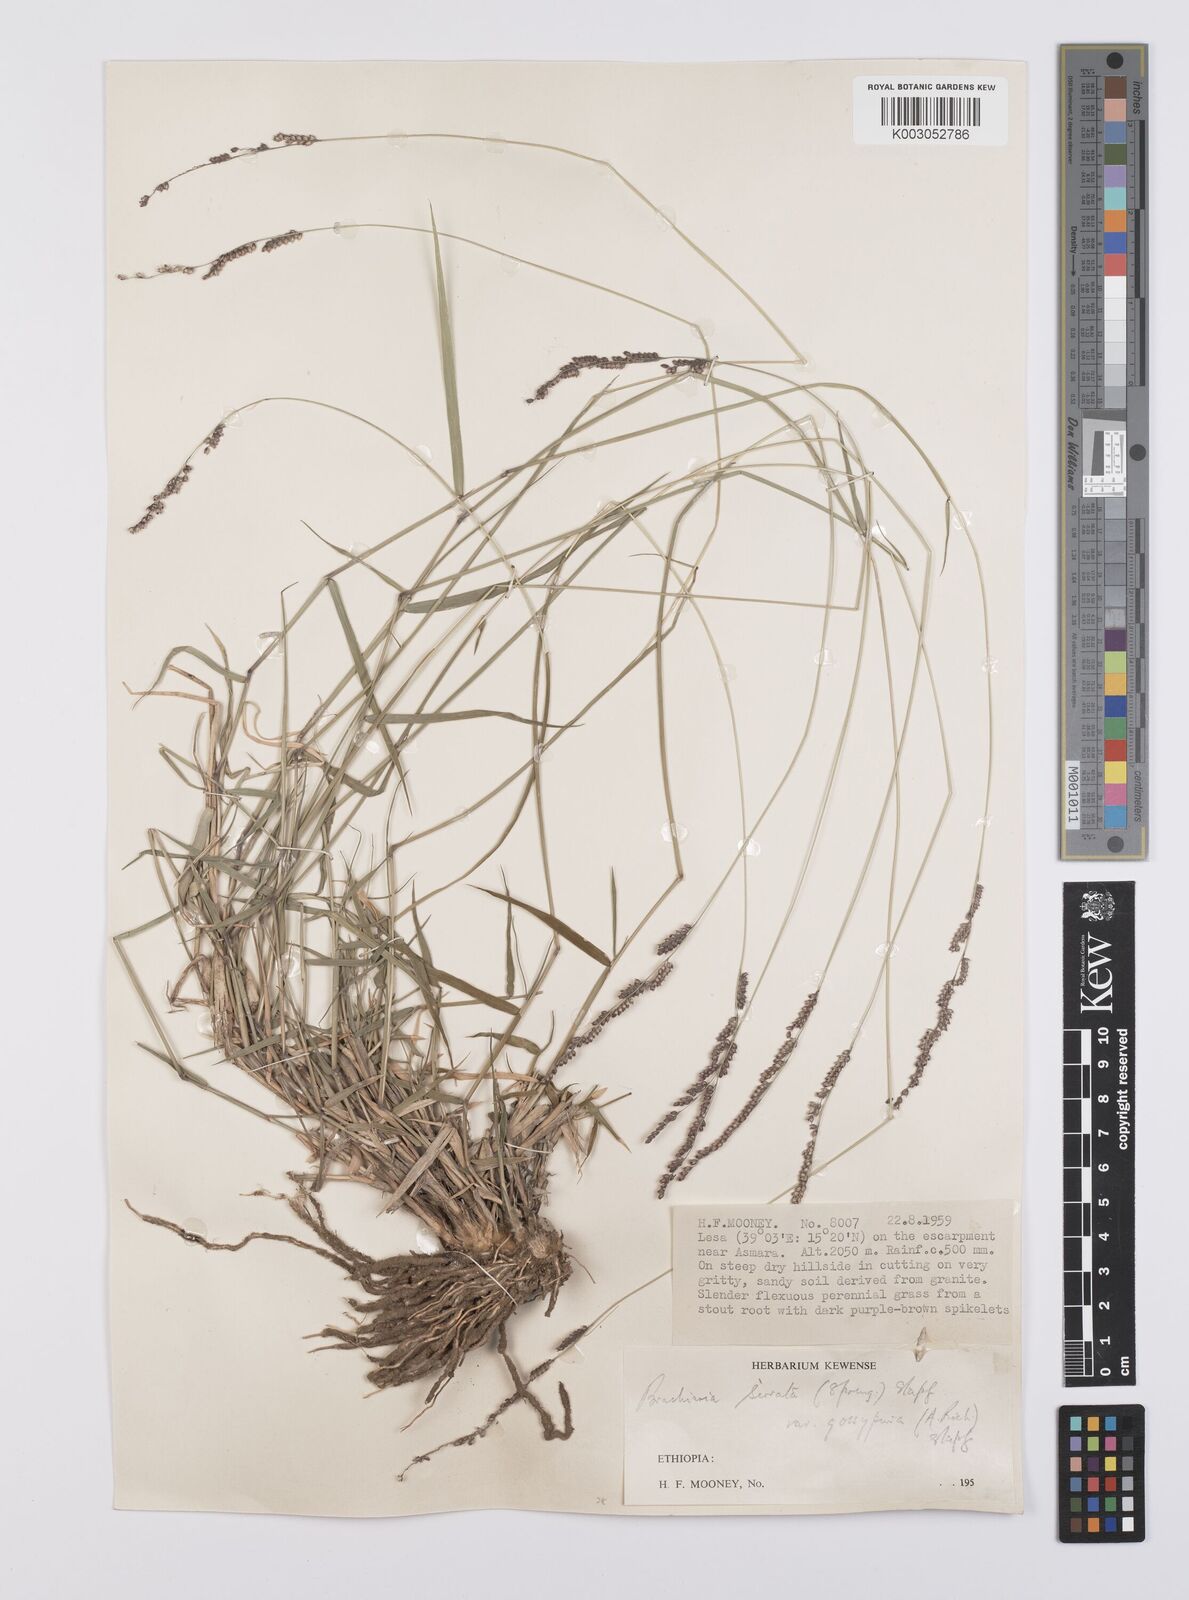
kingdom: Plantae
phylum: Tracheophyta
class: Liliopsida
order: Poales
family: Poaceae
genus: Urochloa
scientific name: Urochloa serrata
